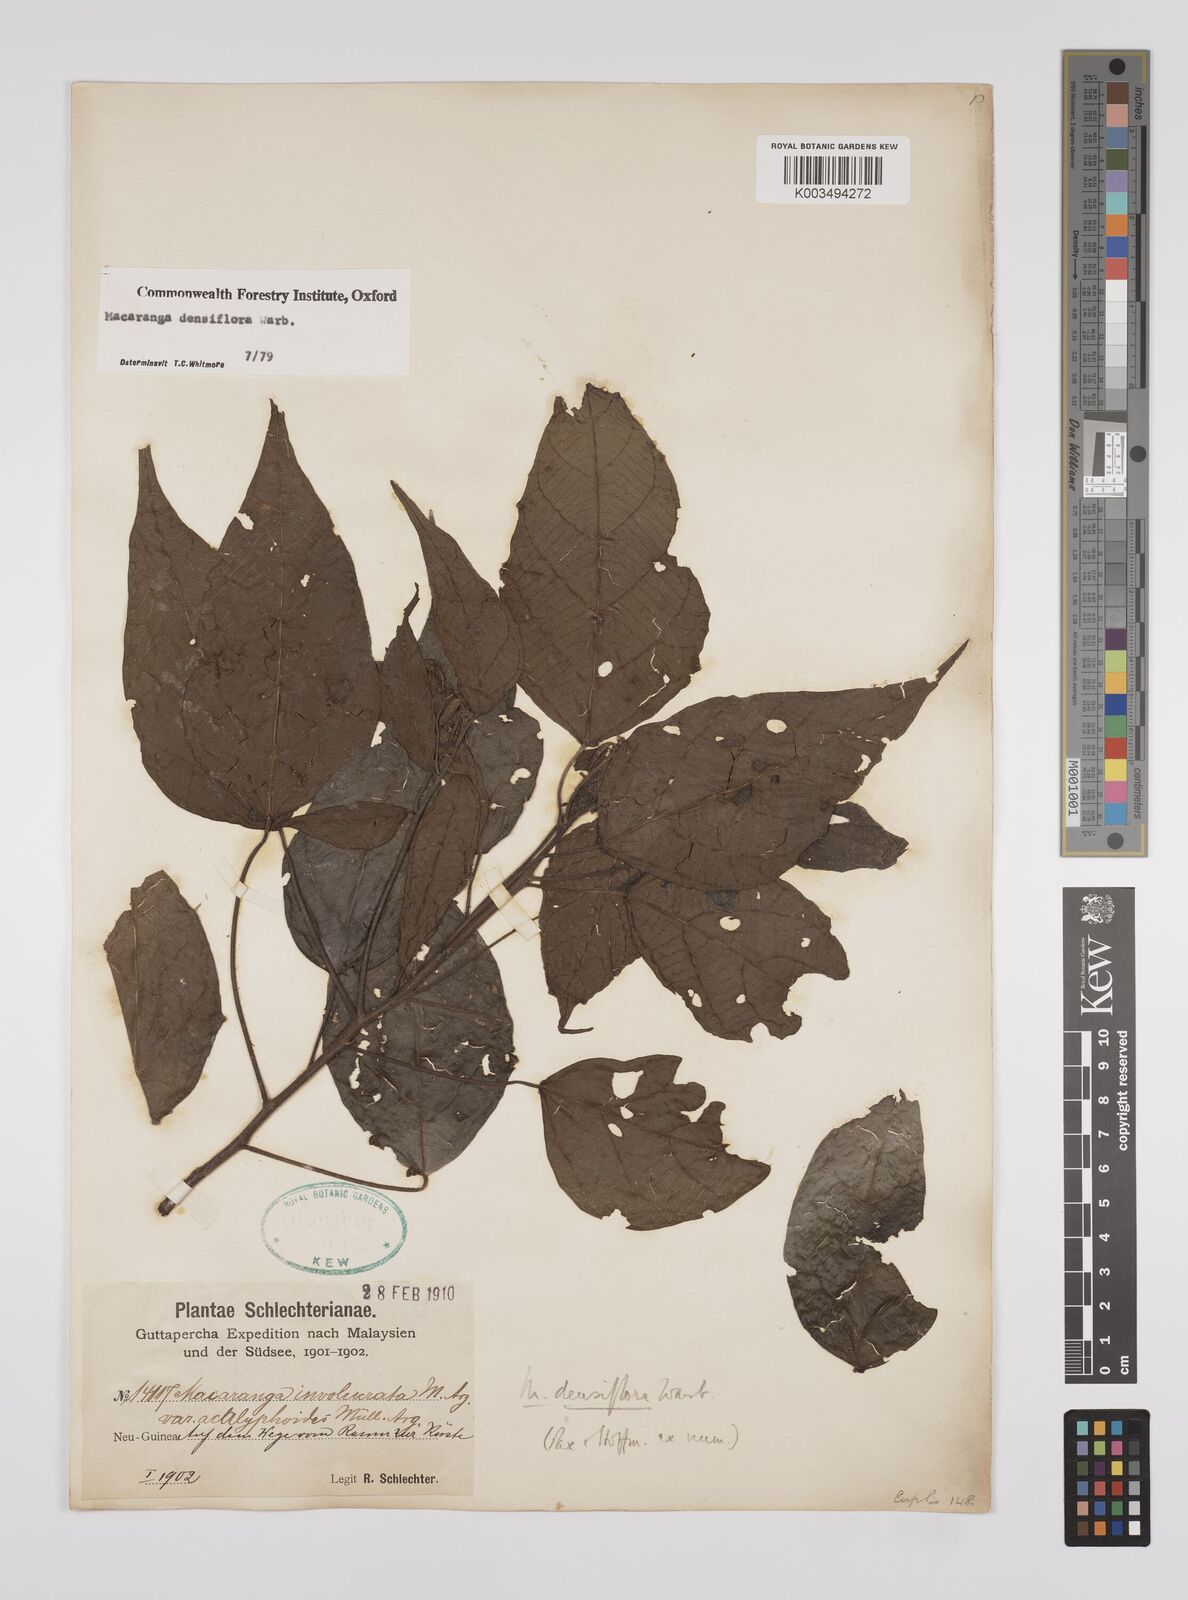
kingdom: Plantae
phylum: Tracheophyta
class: Magnoliopsida
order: Malpighiales
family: Euphorbiaceae
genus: Macaranga
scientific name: Macaranga densiflora
